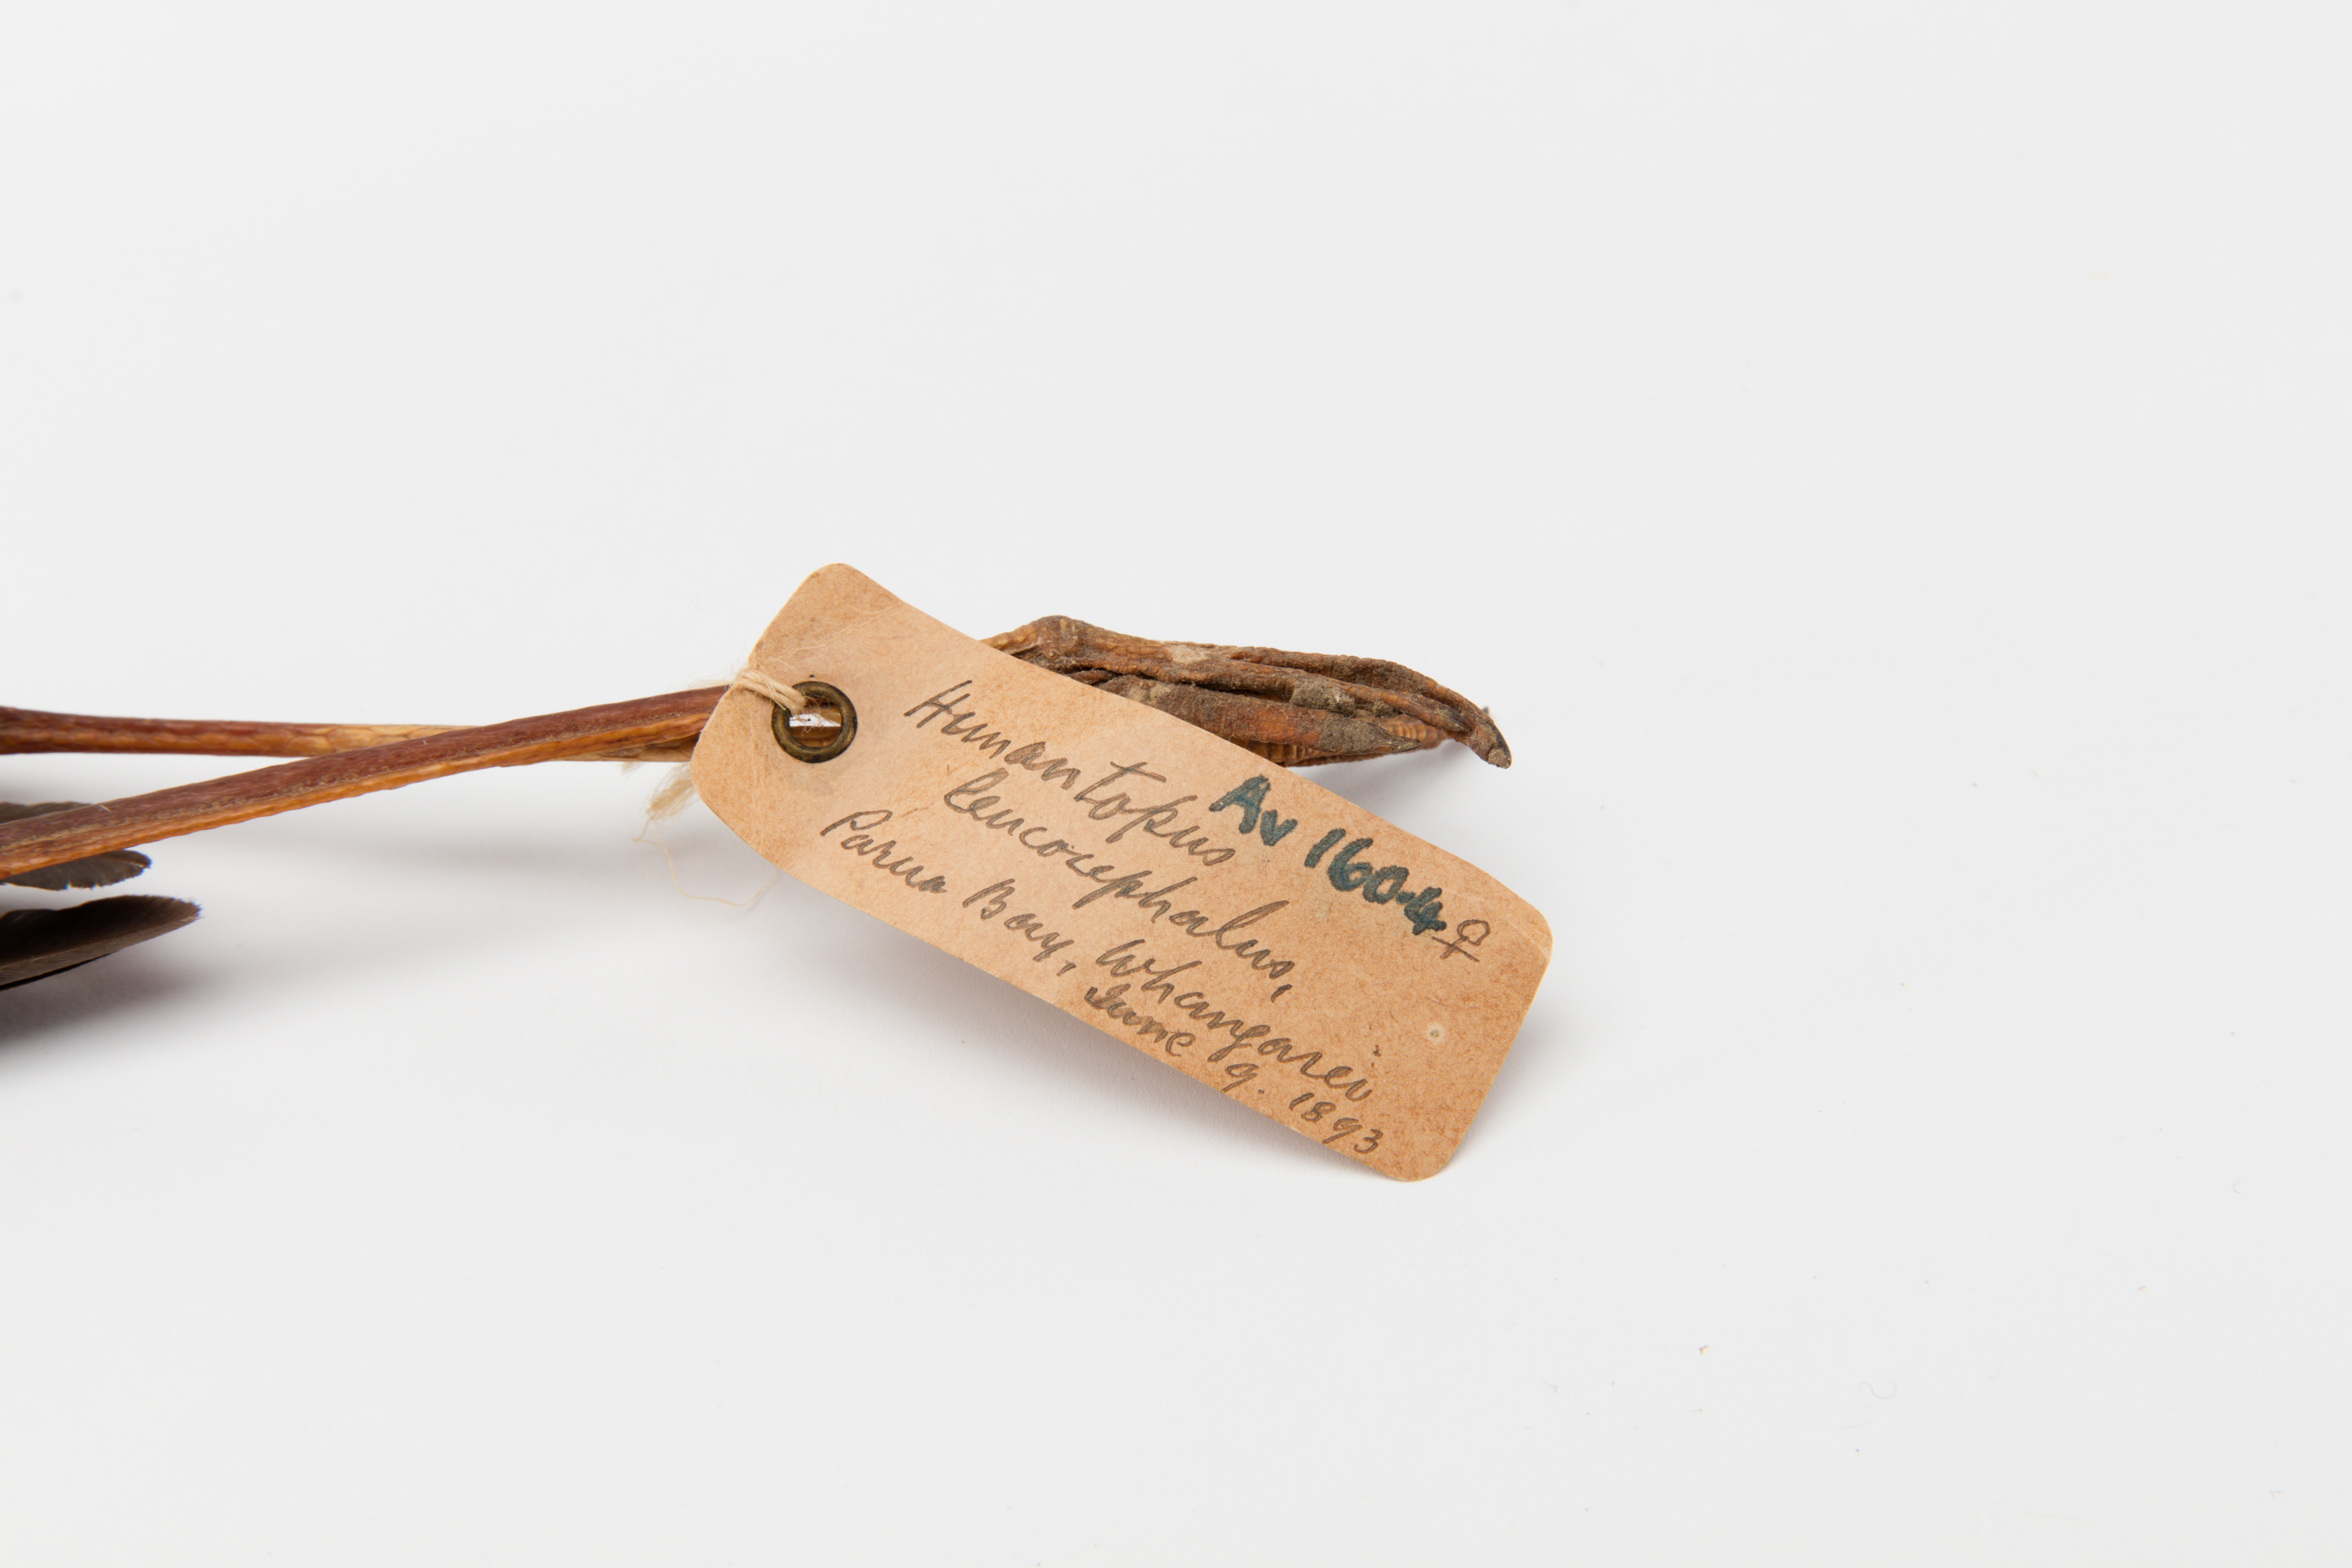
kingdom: Animalia
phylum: Chordata
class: Aves
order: Charadriiformes
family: Recurvirostridae
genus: Himantopus
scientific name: Himantopus himantopus
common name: Black-winged stilt
